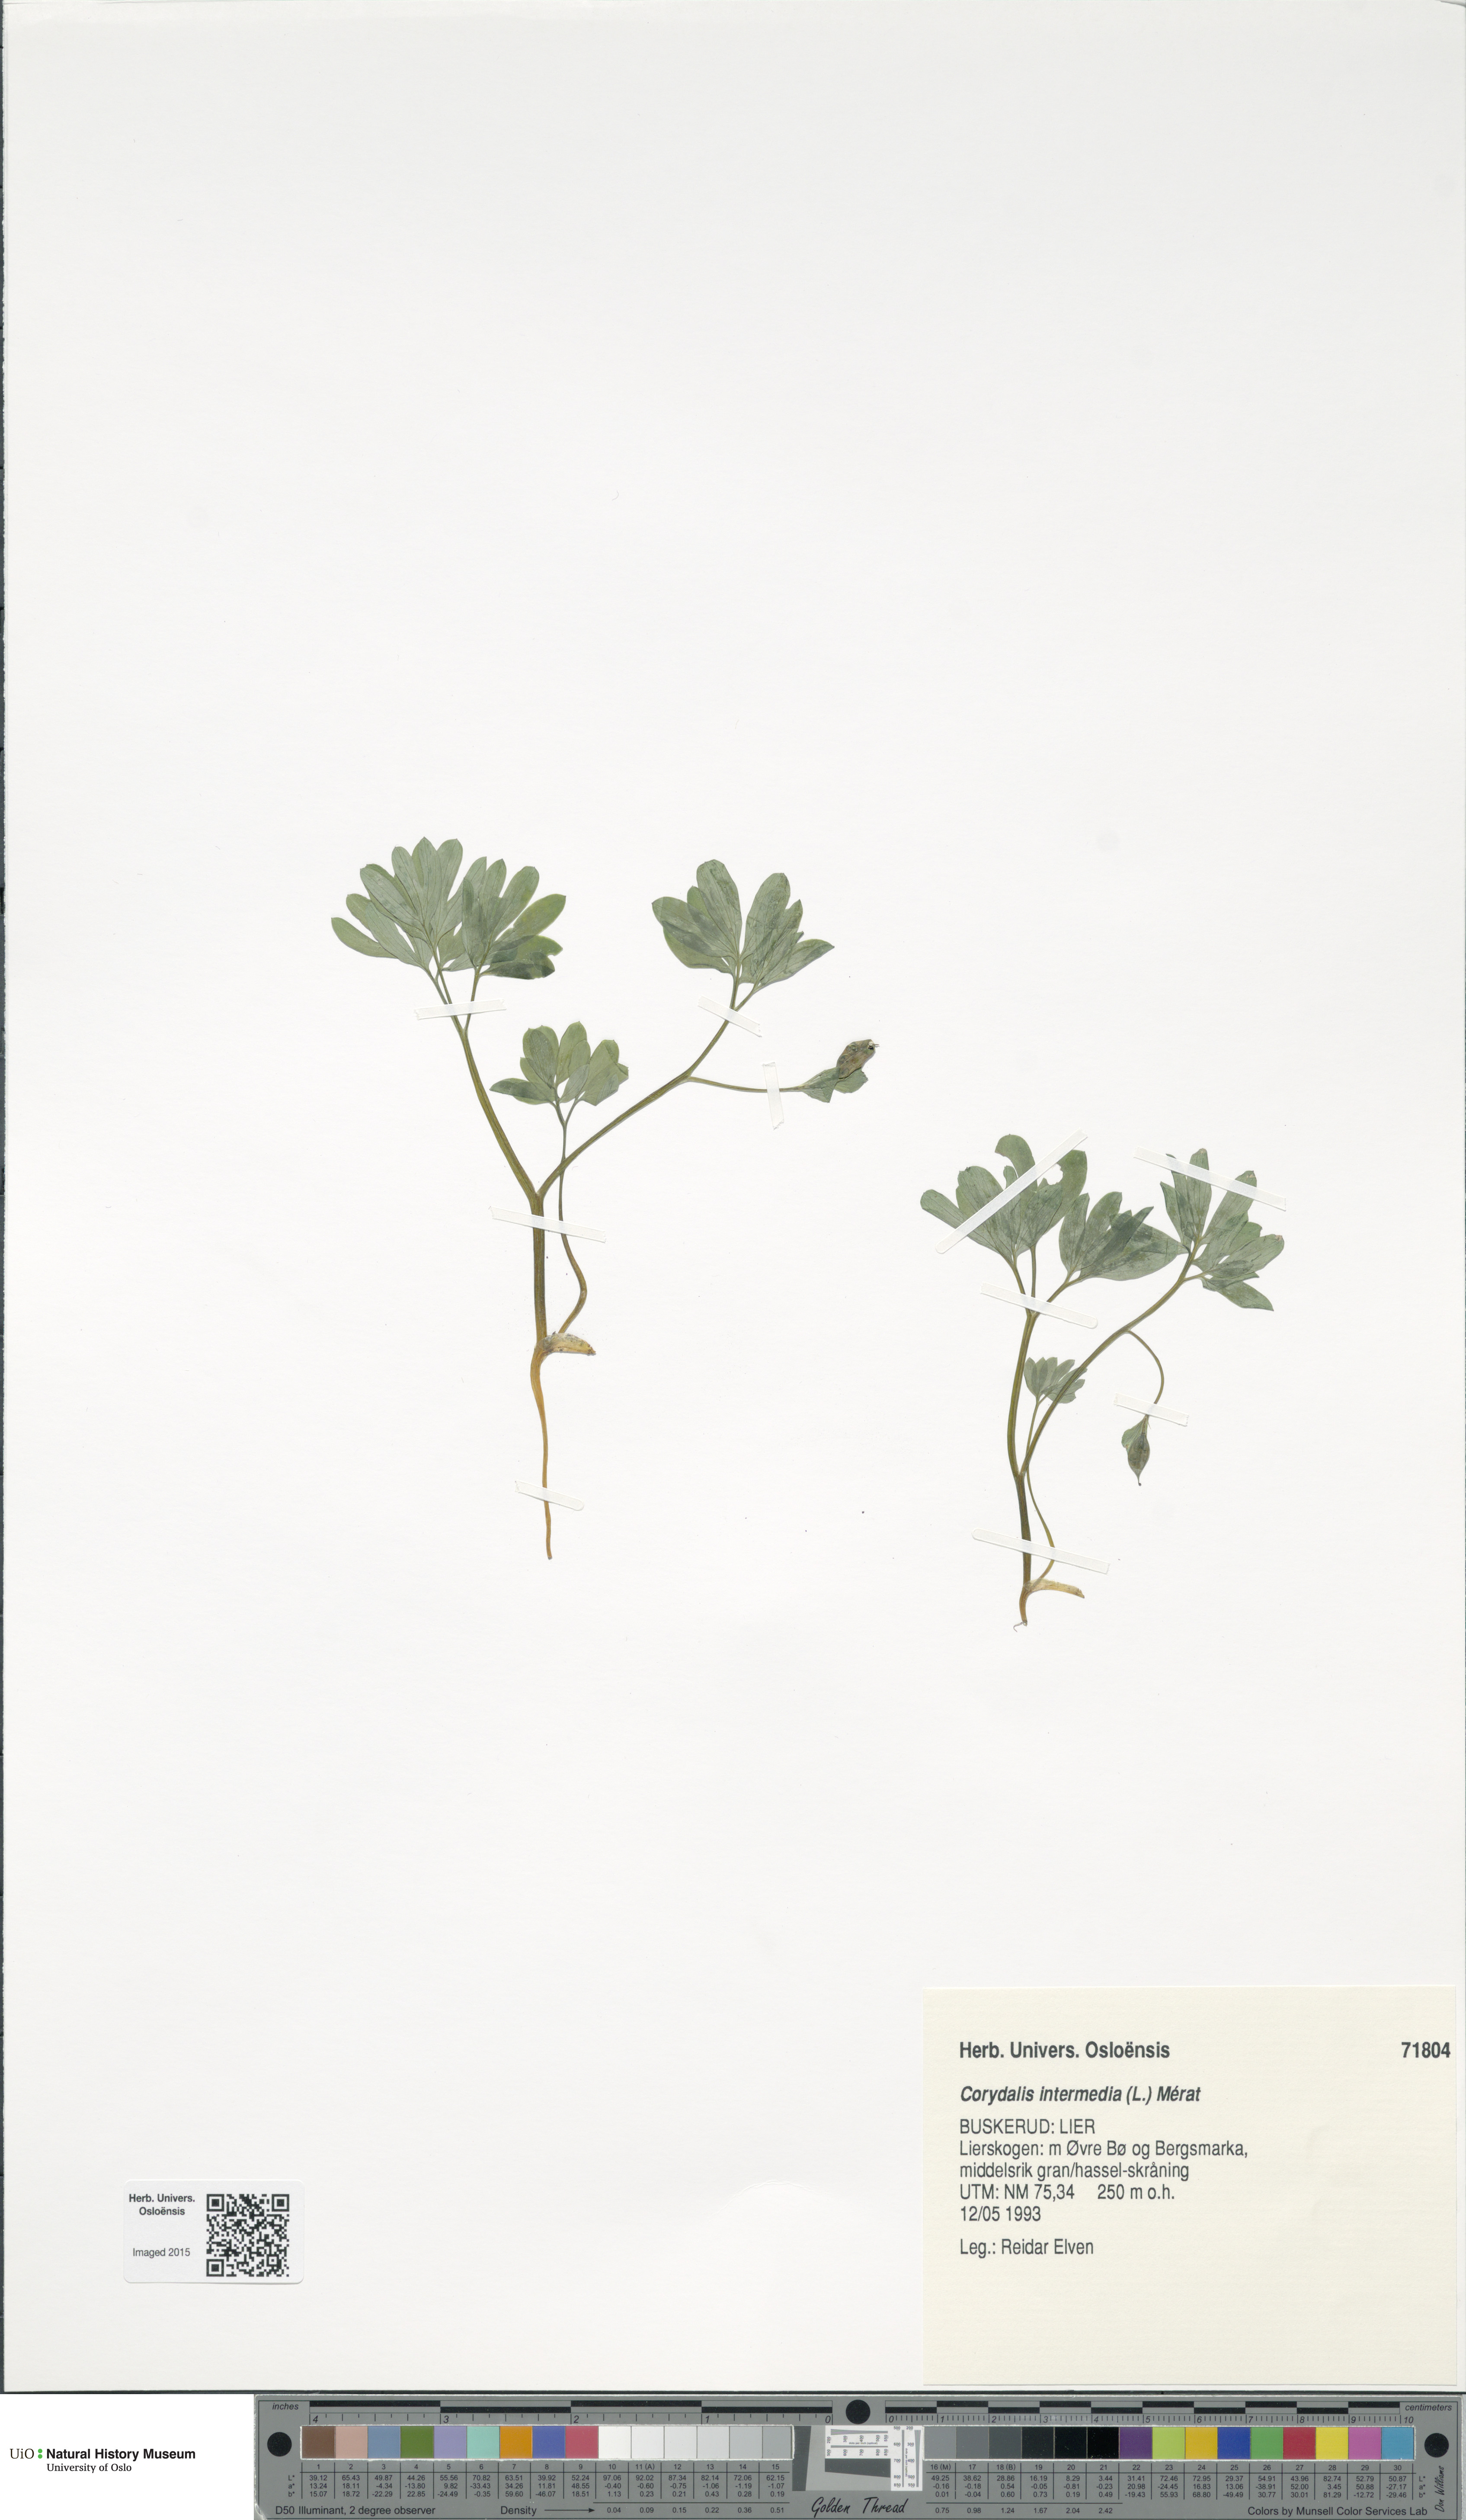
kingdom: Plantae
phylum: Tracheophyta
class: Magnoliopsida
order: Ranunculales
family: Papaveraceae
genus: Corydalis
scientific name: Corydalis intermedia
